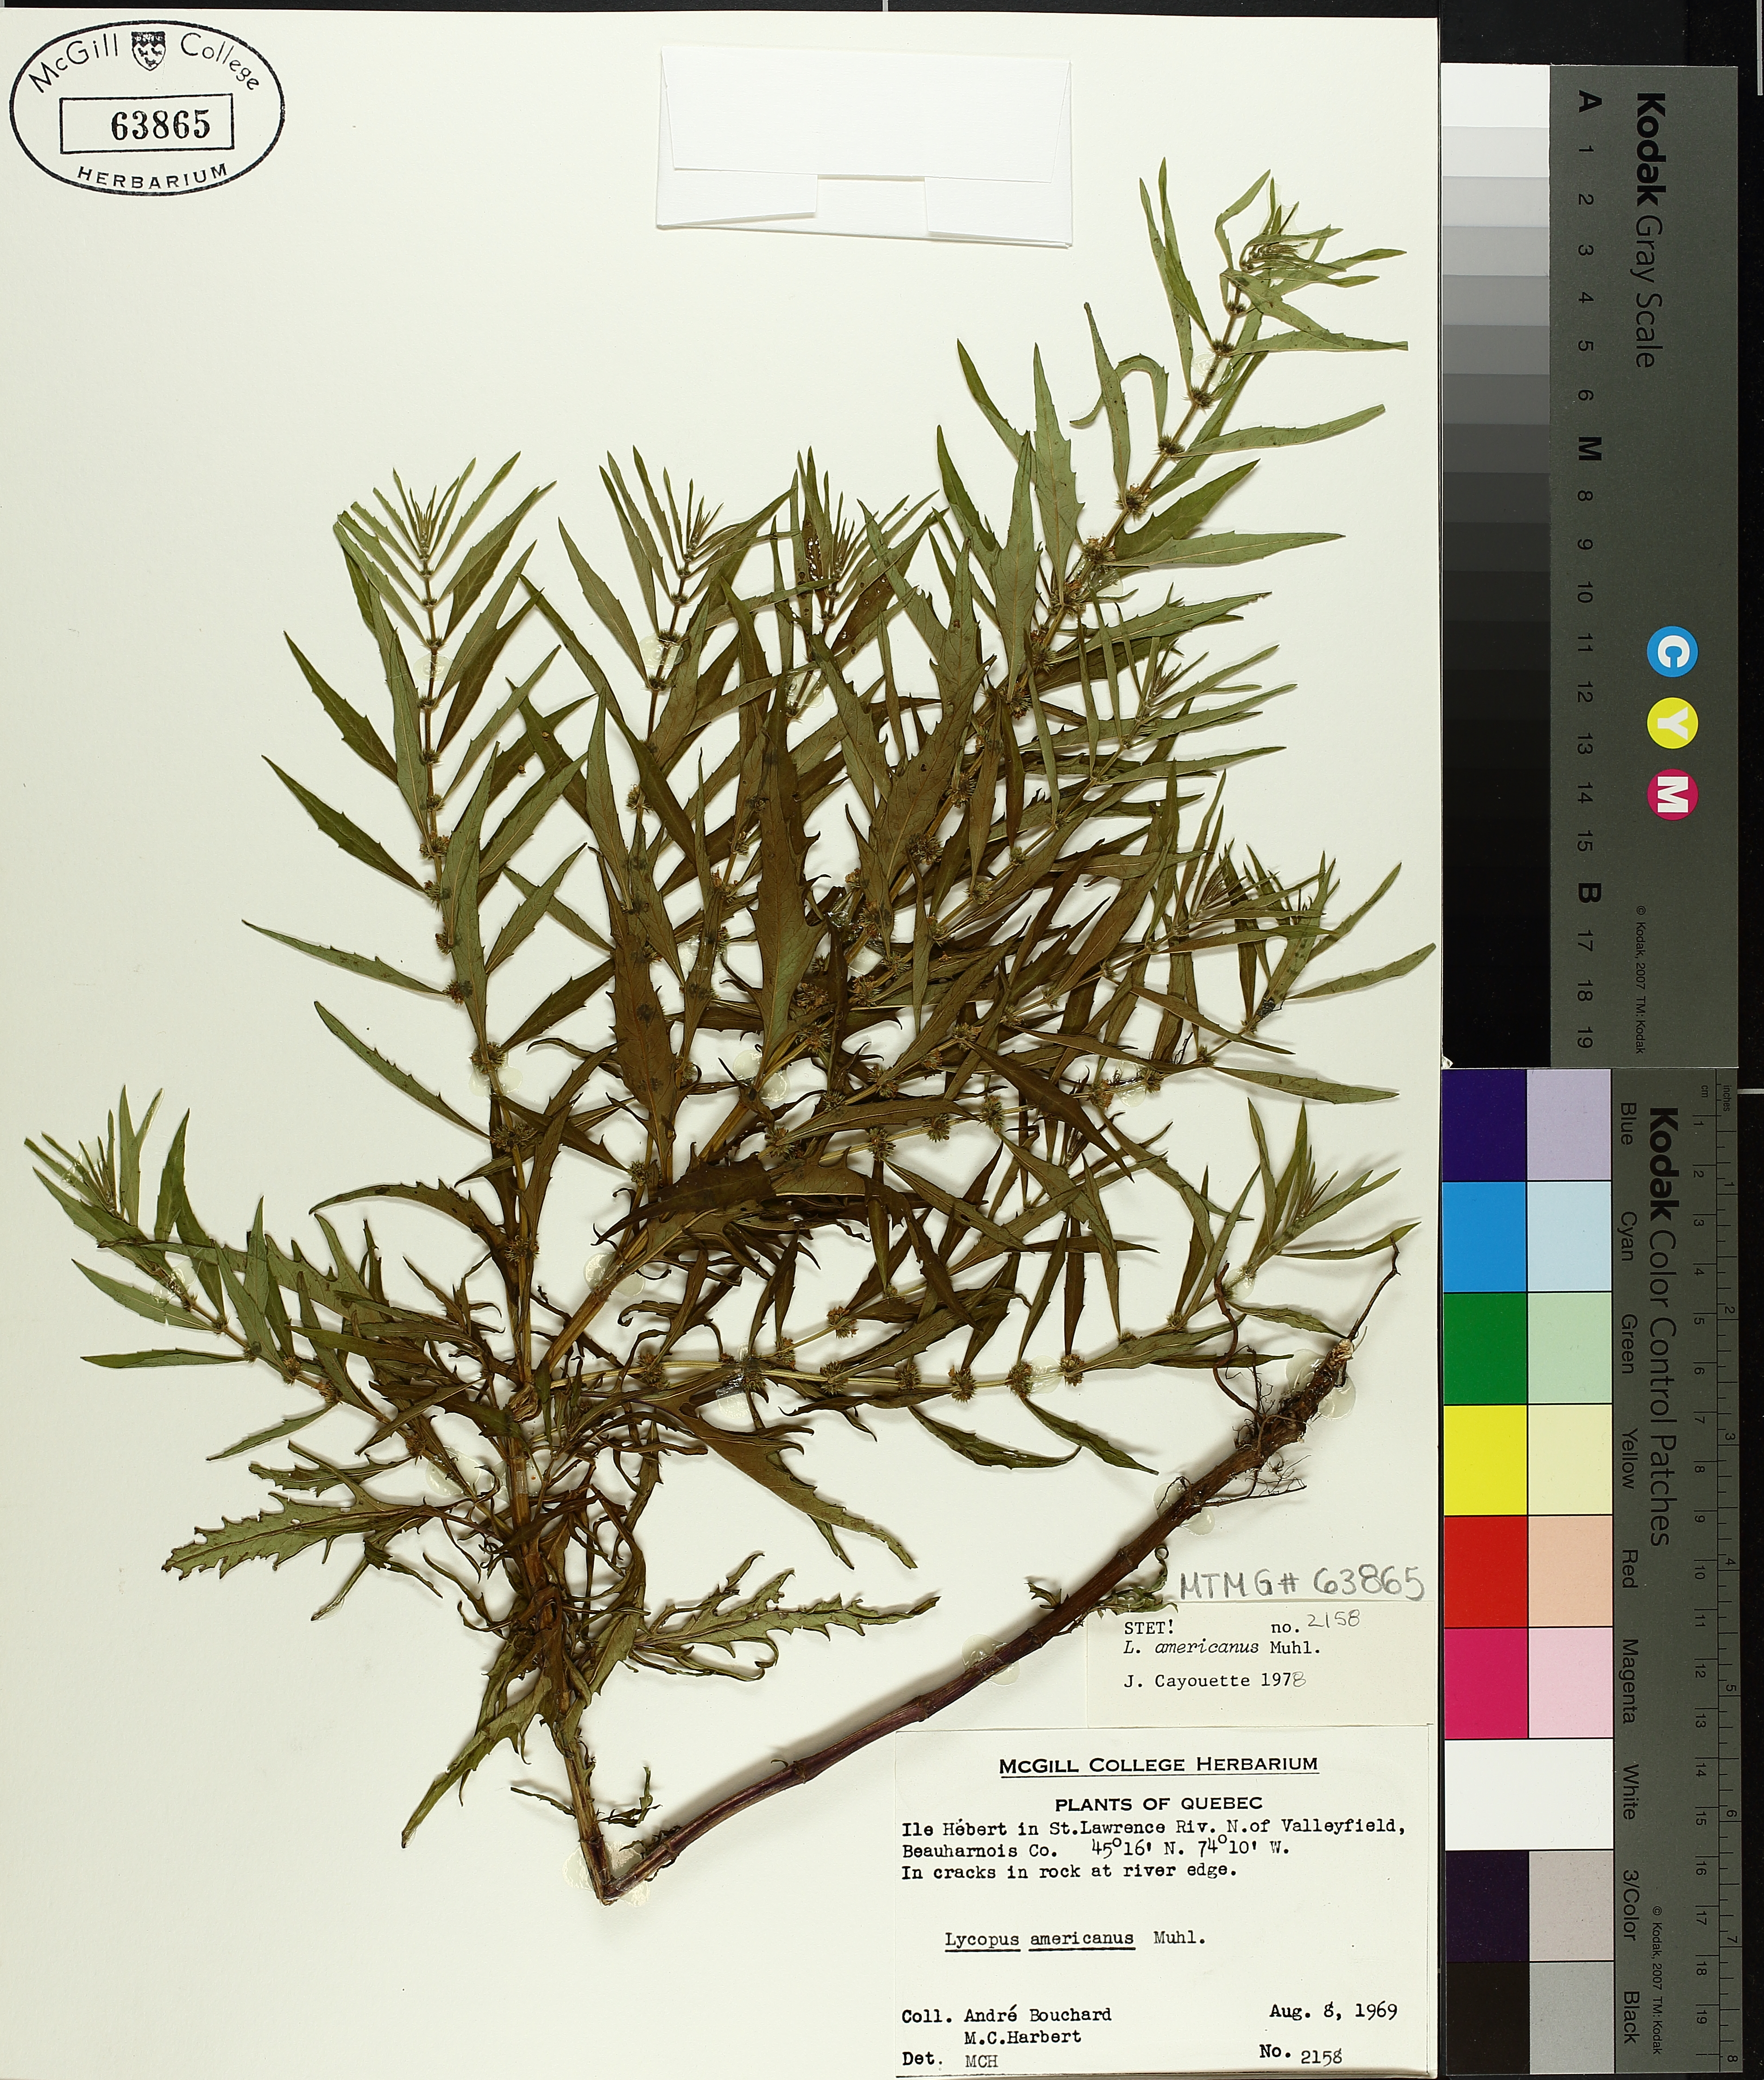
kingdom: Plantae
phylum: Tracheophyta
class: Magnoliopsida
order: Lamiales
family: Lamiaceae
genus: Lycopus
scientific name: Lycopus americanus
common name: American bugleweed
